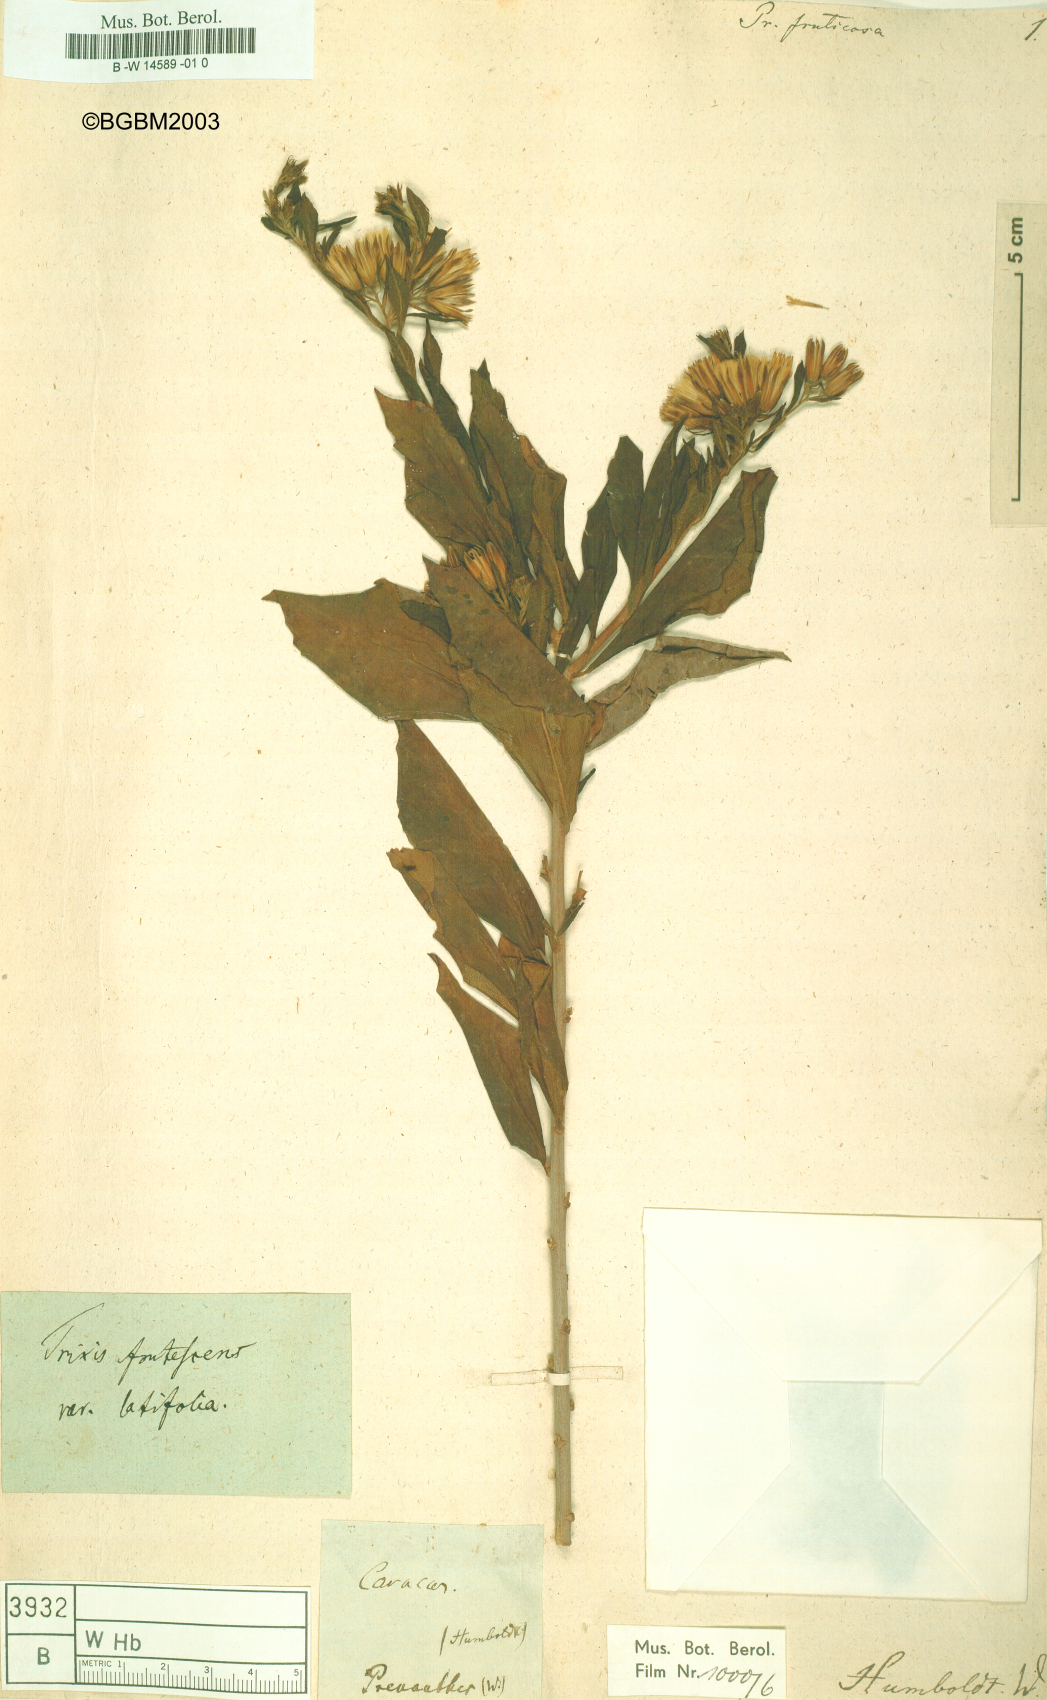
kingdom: Plantae
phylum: Tracheophyta
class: Magnoliopsida
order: Asterales
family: Asteraceae
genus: Trixis
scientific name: Trixis inula
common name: Tropical threefold
